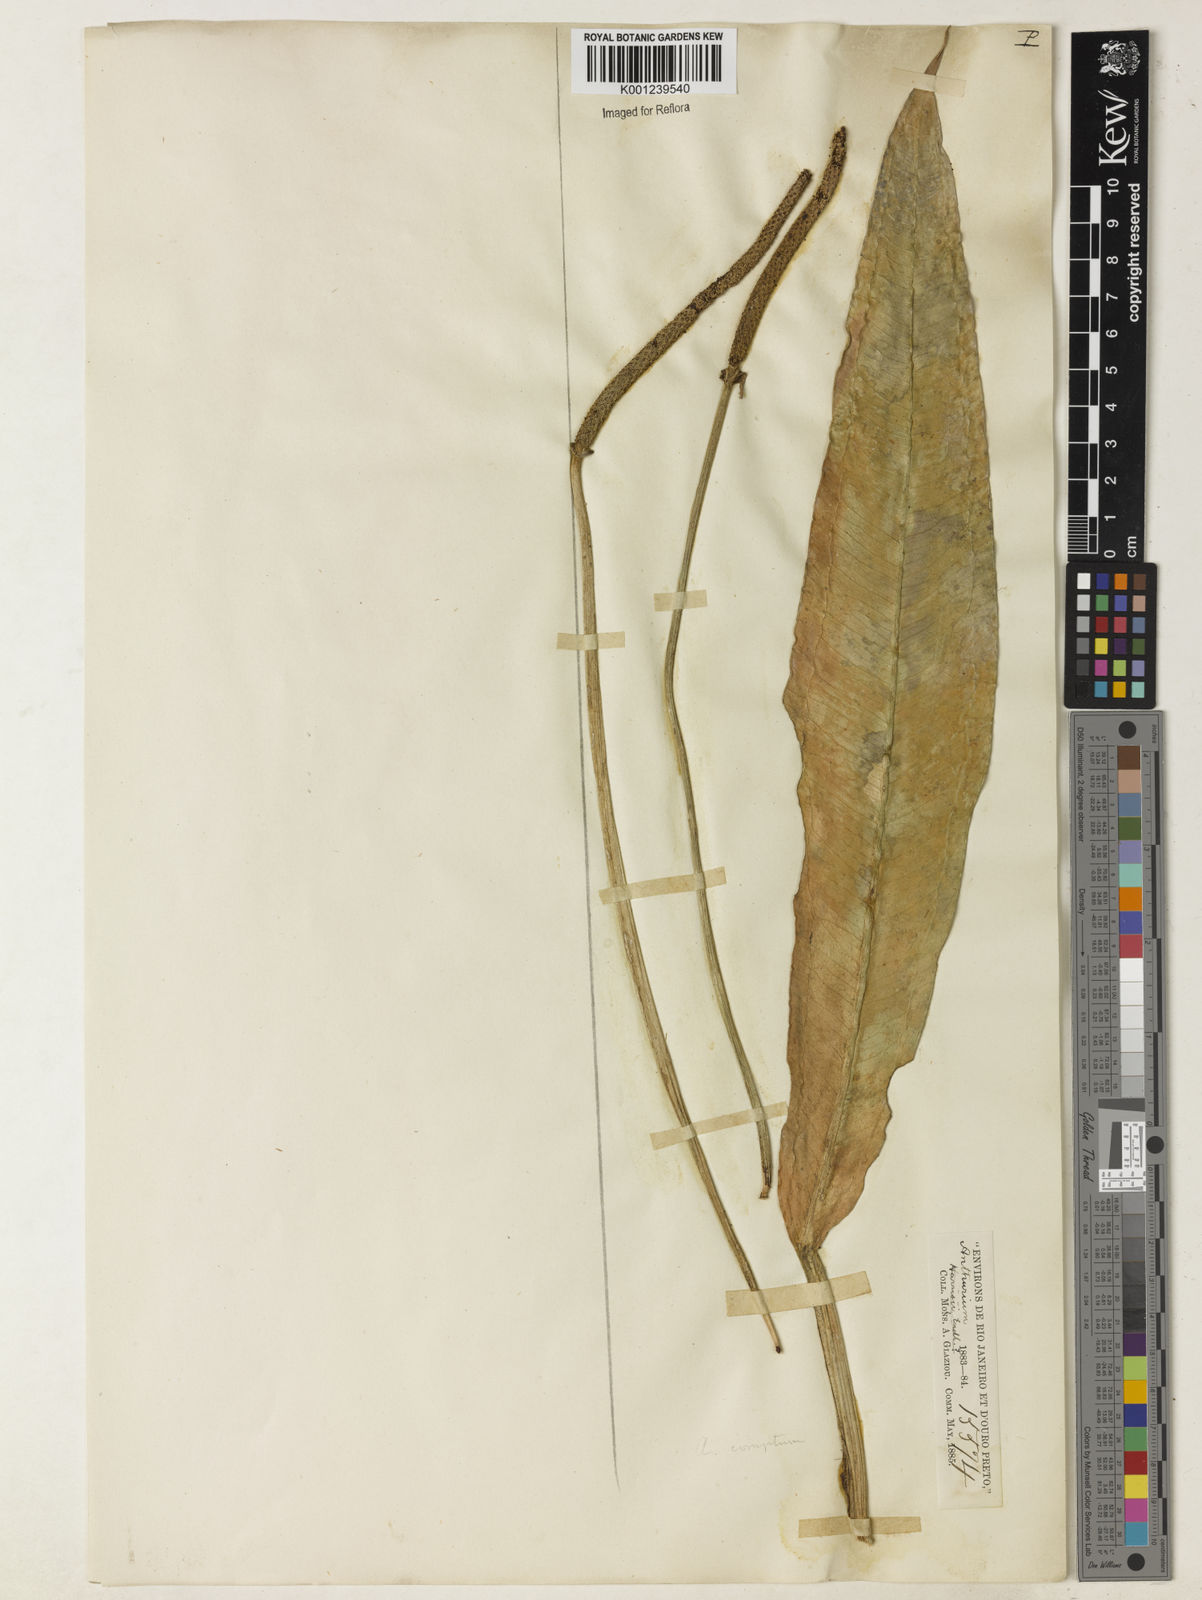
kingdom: Plantae
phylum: Tracheophyta
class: Liliopsida
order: Alismatales
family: Araceae
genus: Anthurium
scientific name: Anthurium langsdorffii
